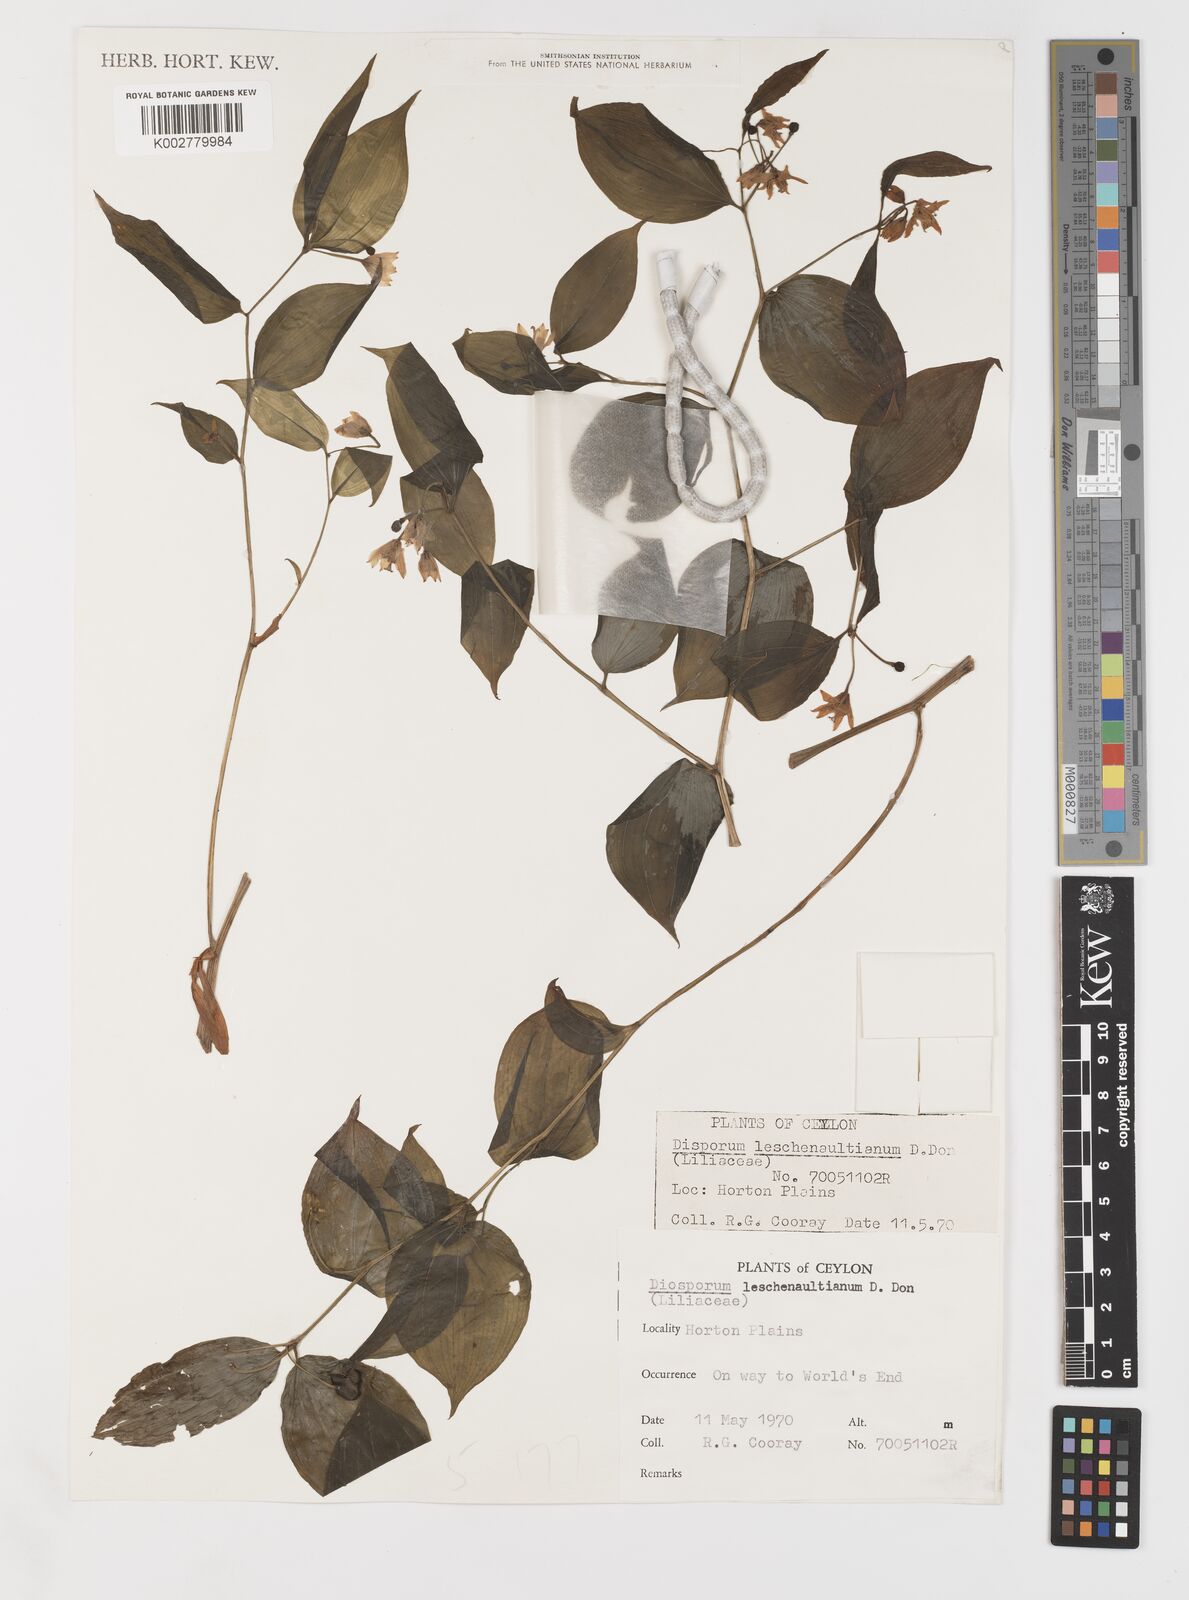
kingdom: Plantae
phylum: Tracheophyta
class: Liliopsida
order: Liliales
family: Colchicaceae
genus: Disporum
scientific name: Disporum cantoniense
